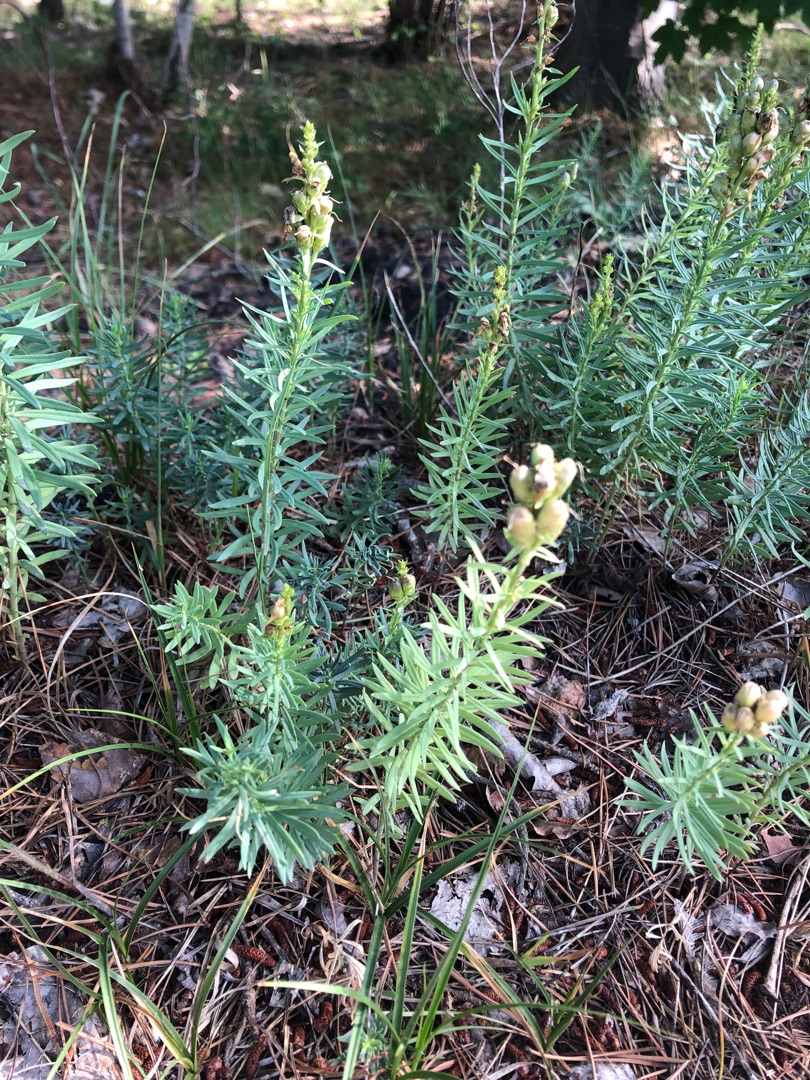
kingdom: Plantae
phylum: Tracheophyta
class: Magnoliopsida
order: Lamiales
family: Plantaginaceae
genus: Linaria
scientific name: Linaria vulgaris
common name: Almindelig torskemund
